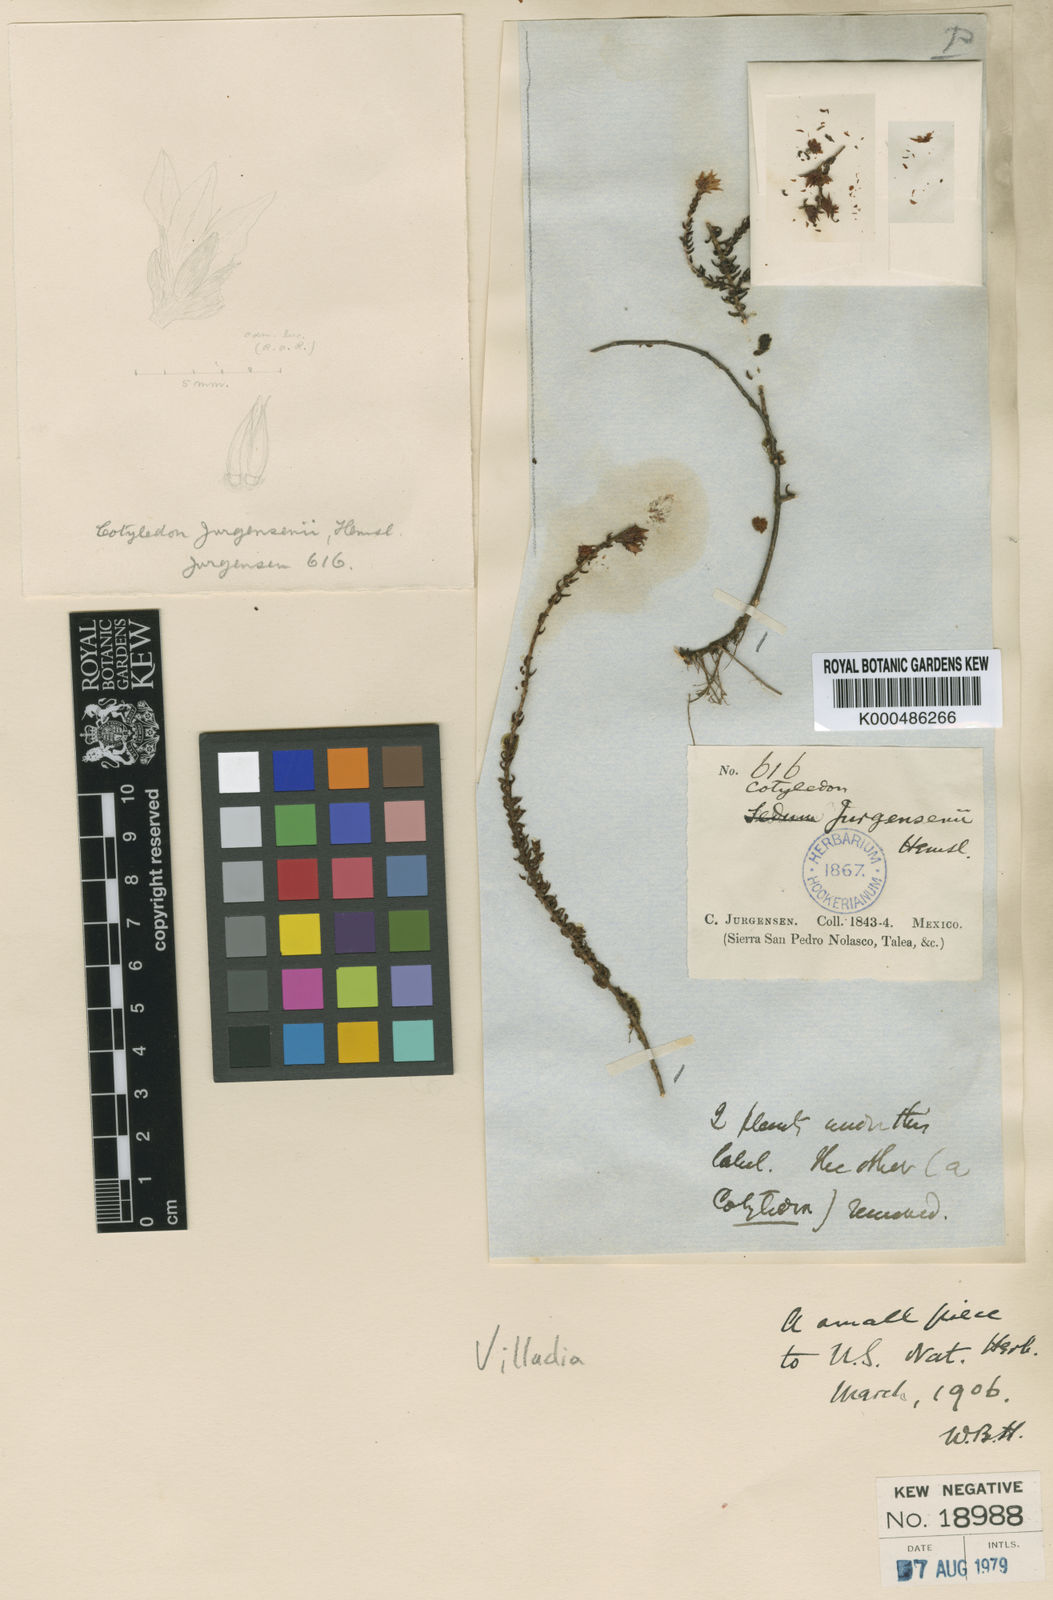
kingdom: Plantae
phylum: Tracheophyta
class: Magnoliopsida
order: Saxifragales
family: Crassulaceae
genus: Sedum
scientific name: Sedum jurgensenii
